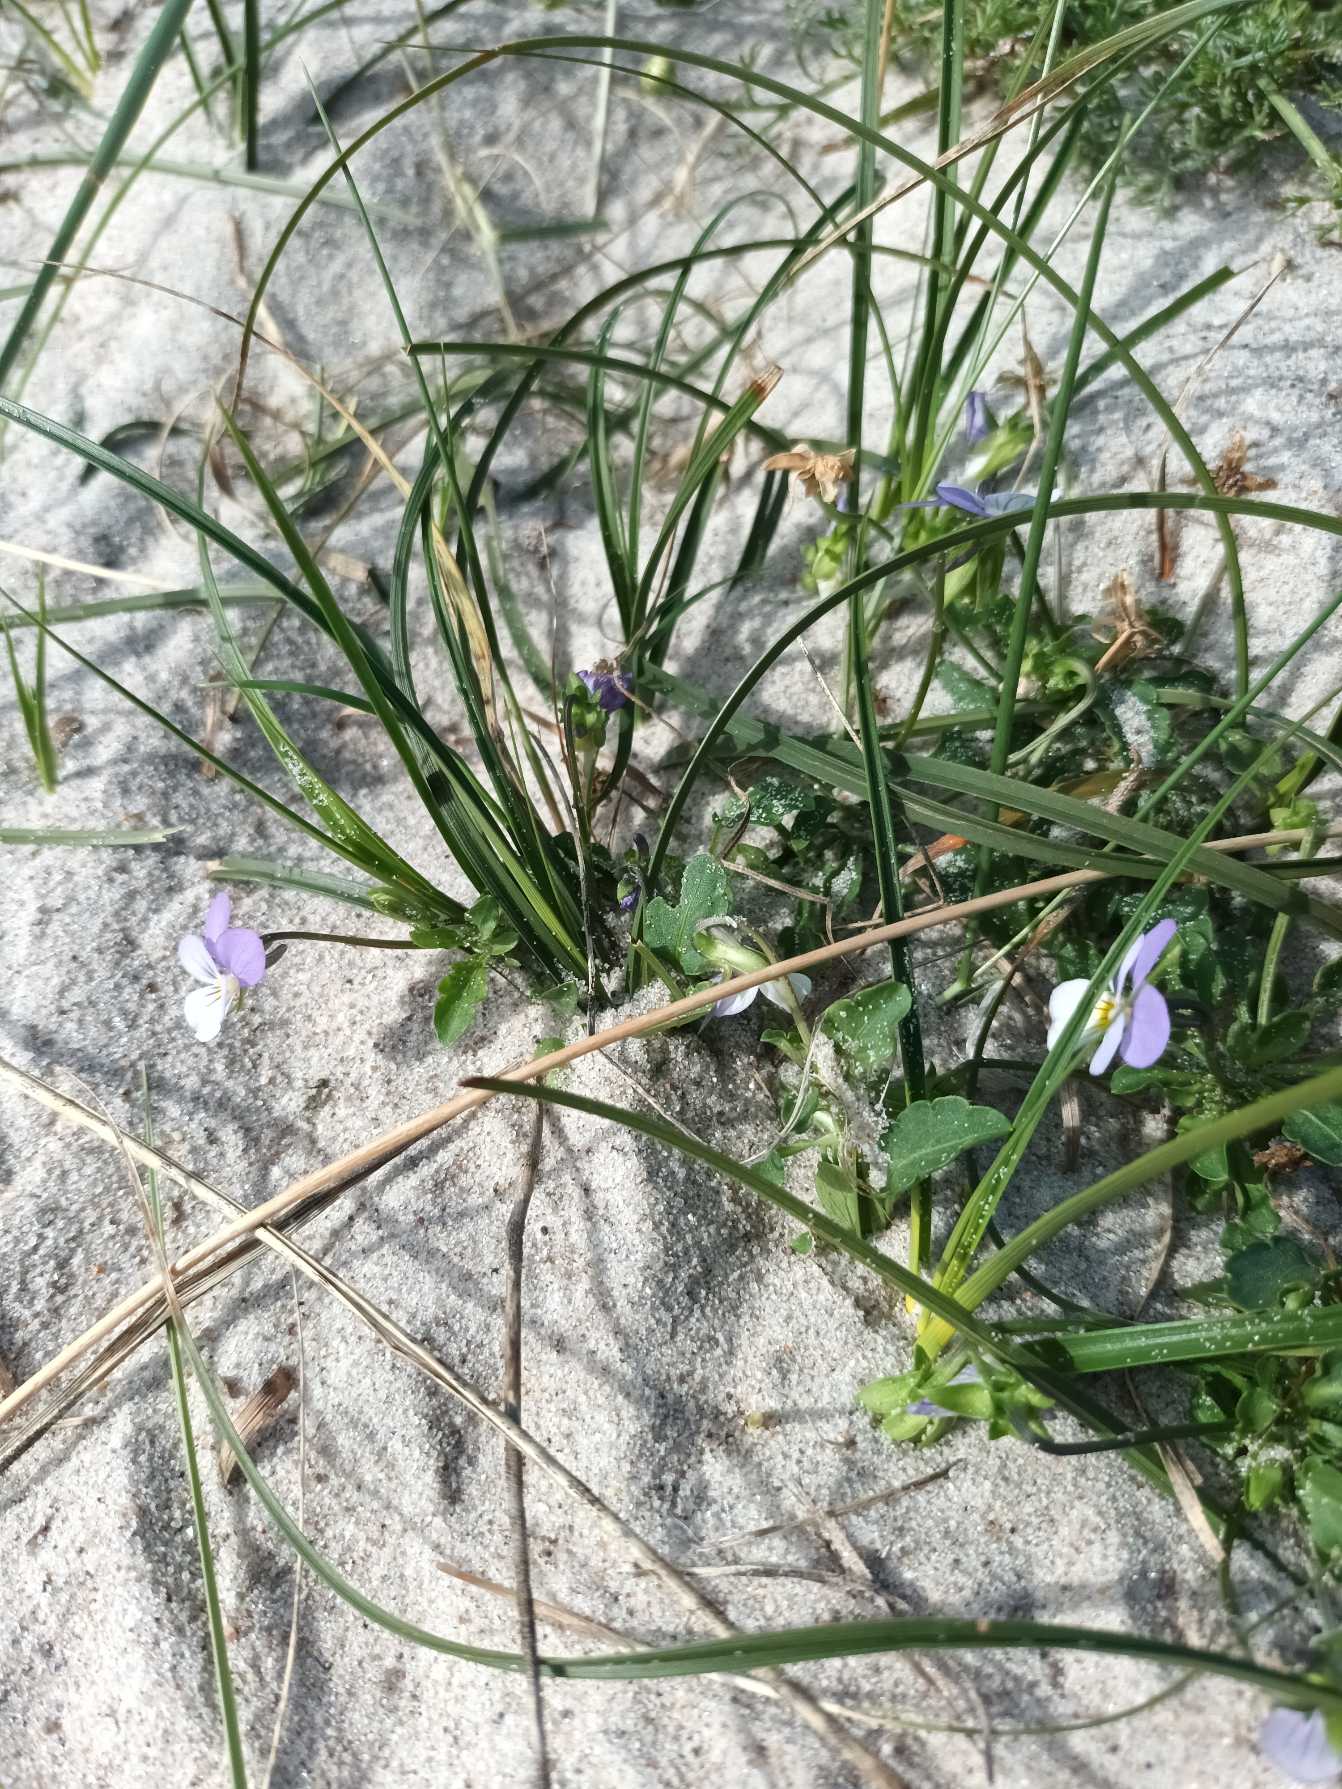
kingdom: Plantae
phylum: Tracheophyta
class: Magnoliopsida
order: Malpighiales
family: Violaceae
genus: Viola
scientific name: Viola tricolor
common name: Klit-stedmoderblomst
